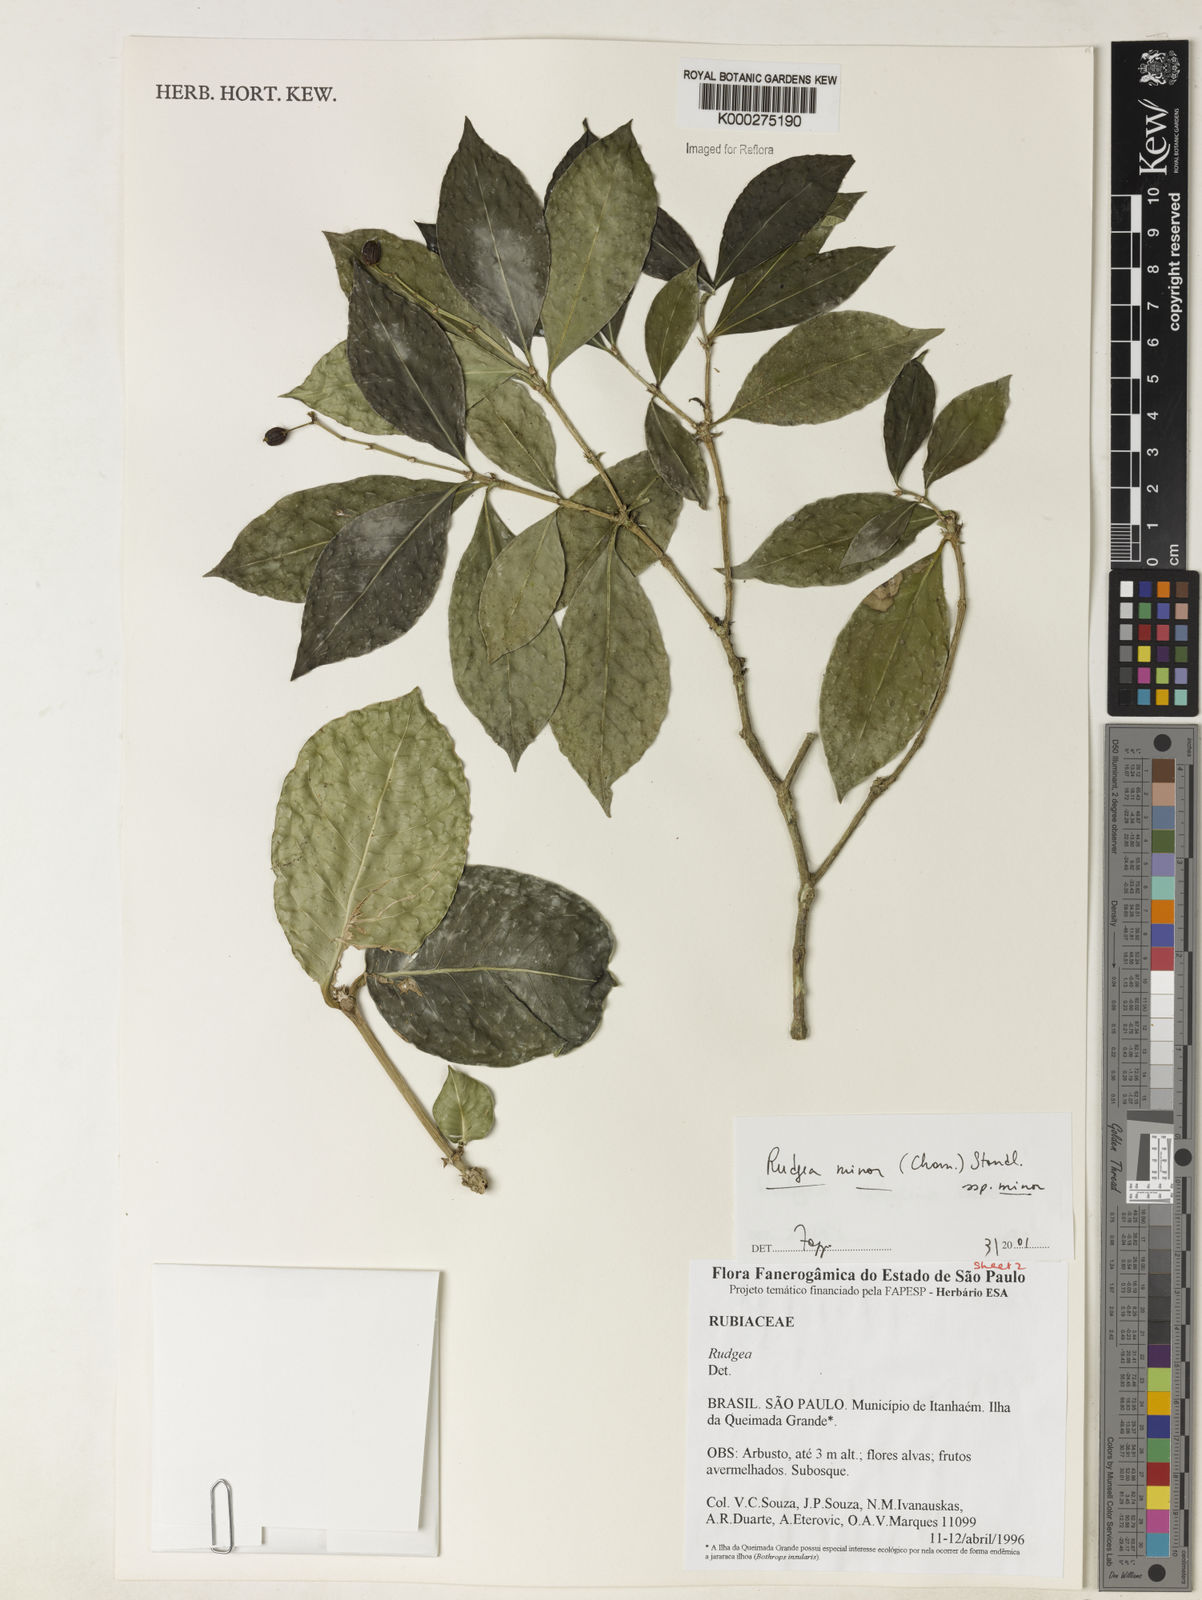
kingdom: Plantae
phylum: Tracheophyta
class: Magnoliopsida
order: Gentianales
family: Rubiaceae
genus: Rudgea
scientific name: Rudgea minor
